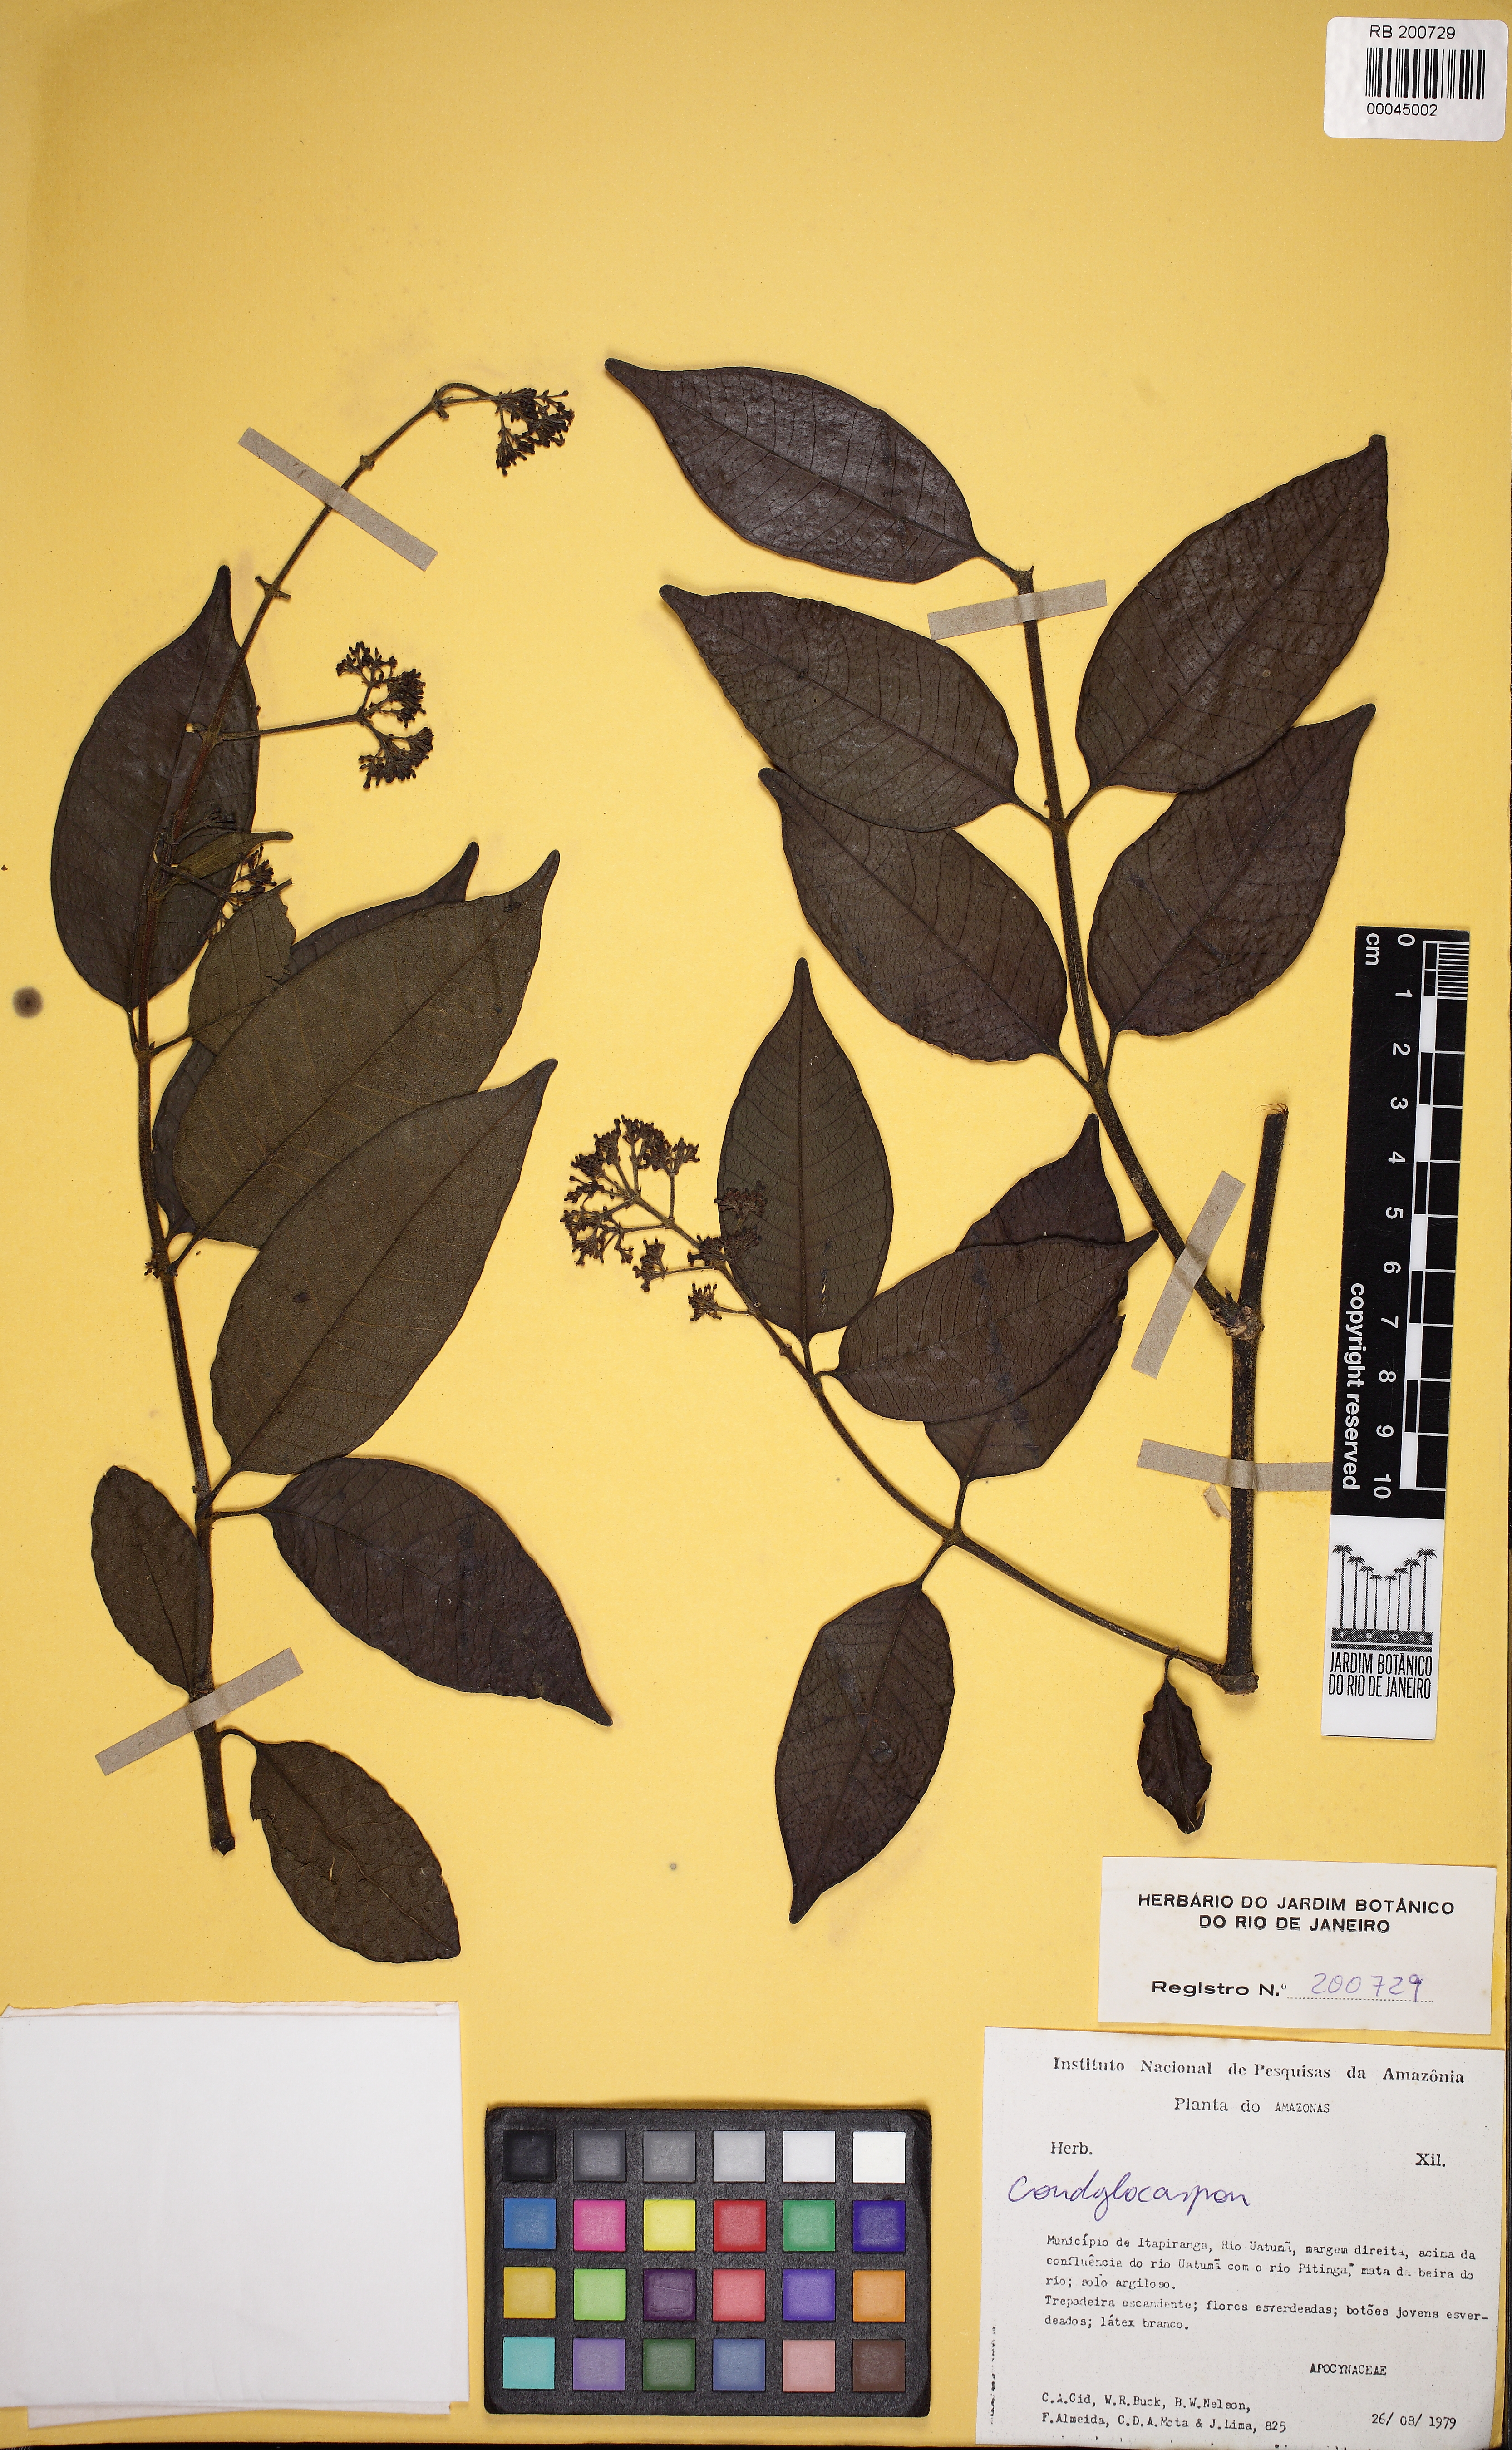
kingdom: Plantae
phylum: Tracheophyta
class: Magnoliopsida
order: Gentianales
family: Apocynaceae
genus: Condylocarpon
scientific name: Condylocarpon
